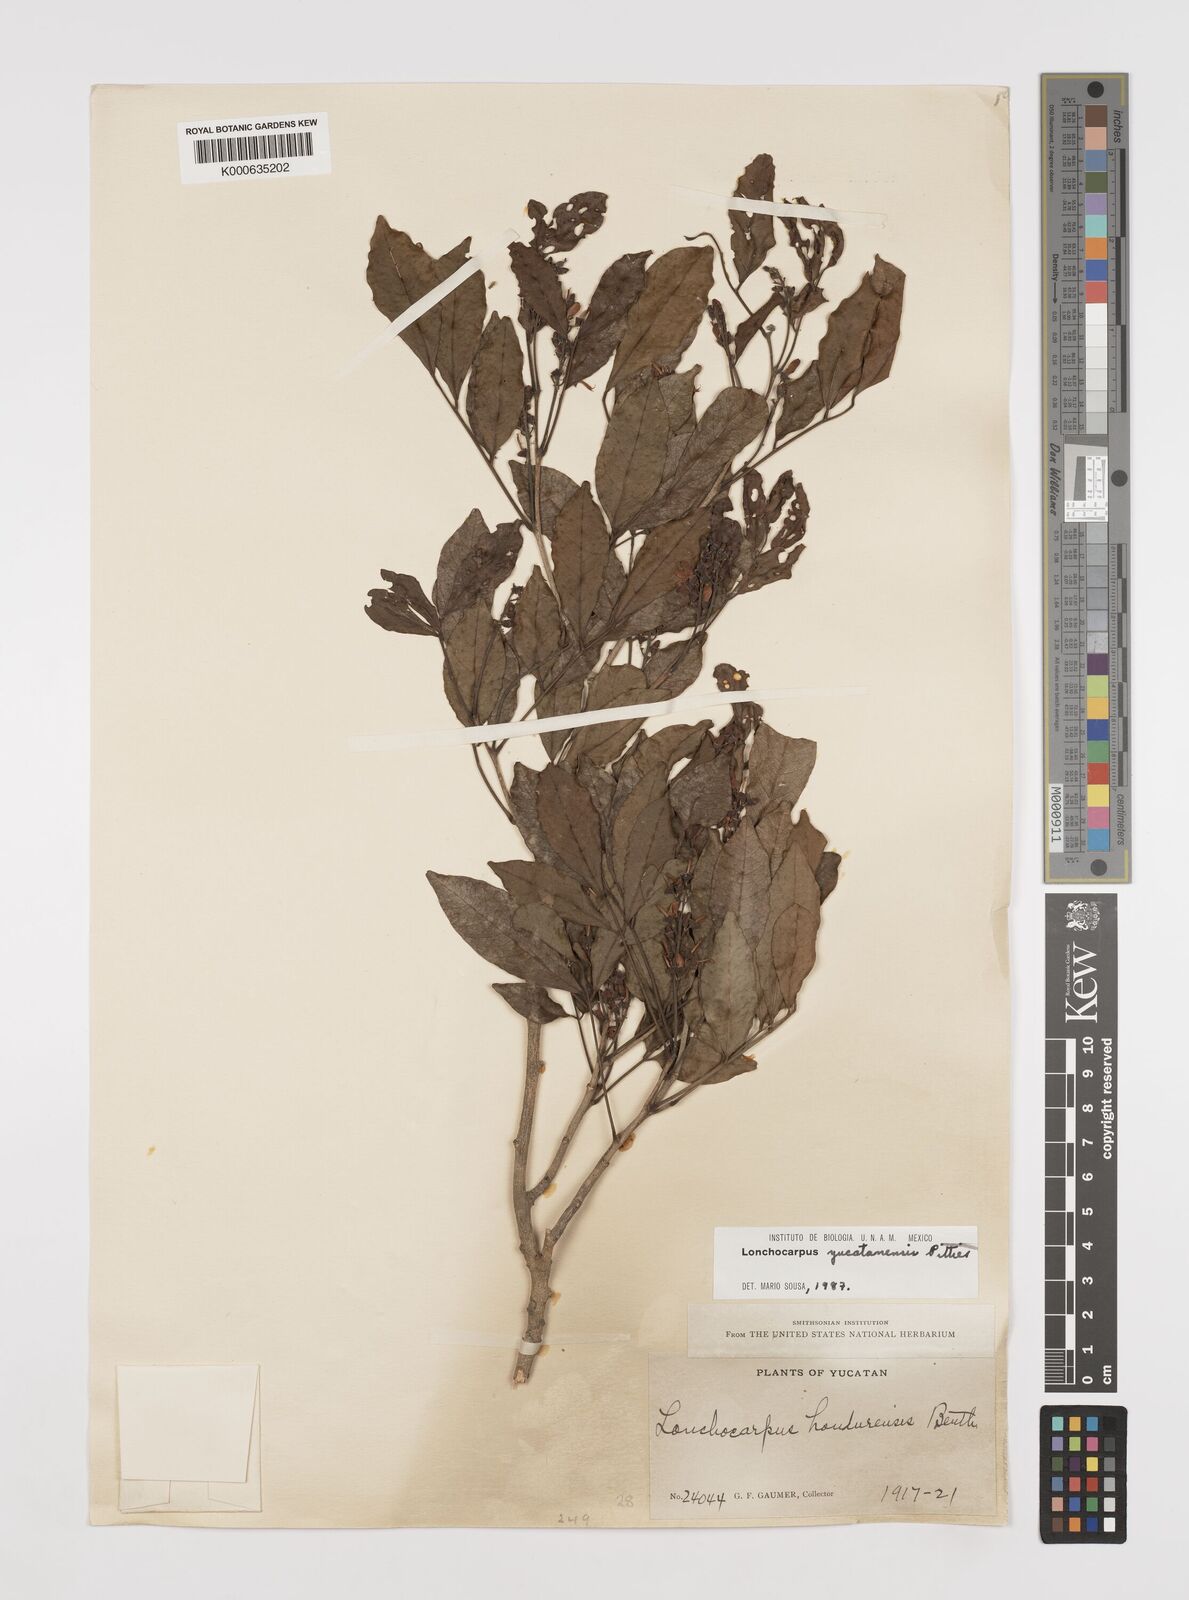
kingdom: Plantae
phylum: Tracheophyta
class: Magnoliopsida
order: Fabales
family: Fabaceae
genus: Lonchocarpus
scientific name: Lonchocarpus yucatanensis
